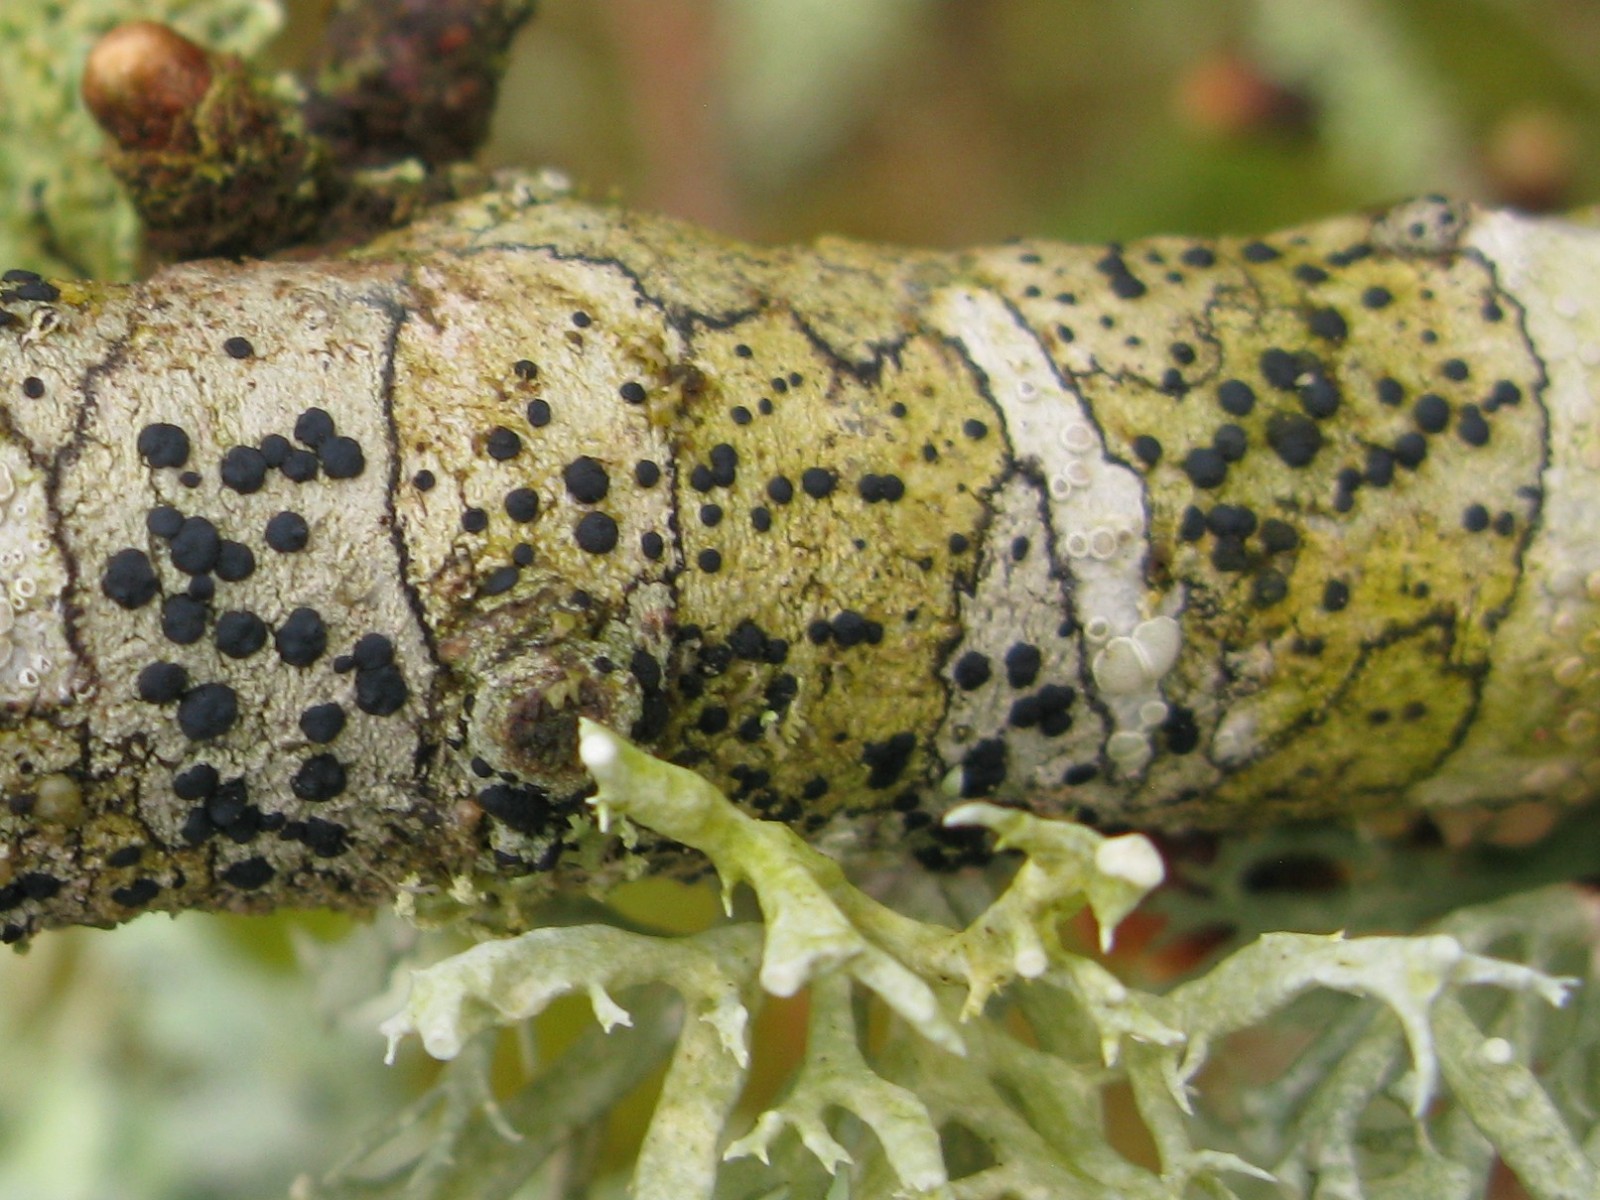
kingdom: Fungi
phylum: Ascomycota
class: Lecanoromycetes
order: Lecanorales
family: Lecanoraceae
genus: Lecidella
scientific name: Lecidella elaeochroma
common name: grågrøn skivelav
